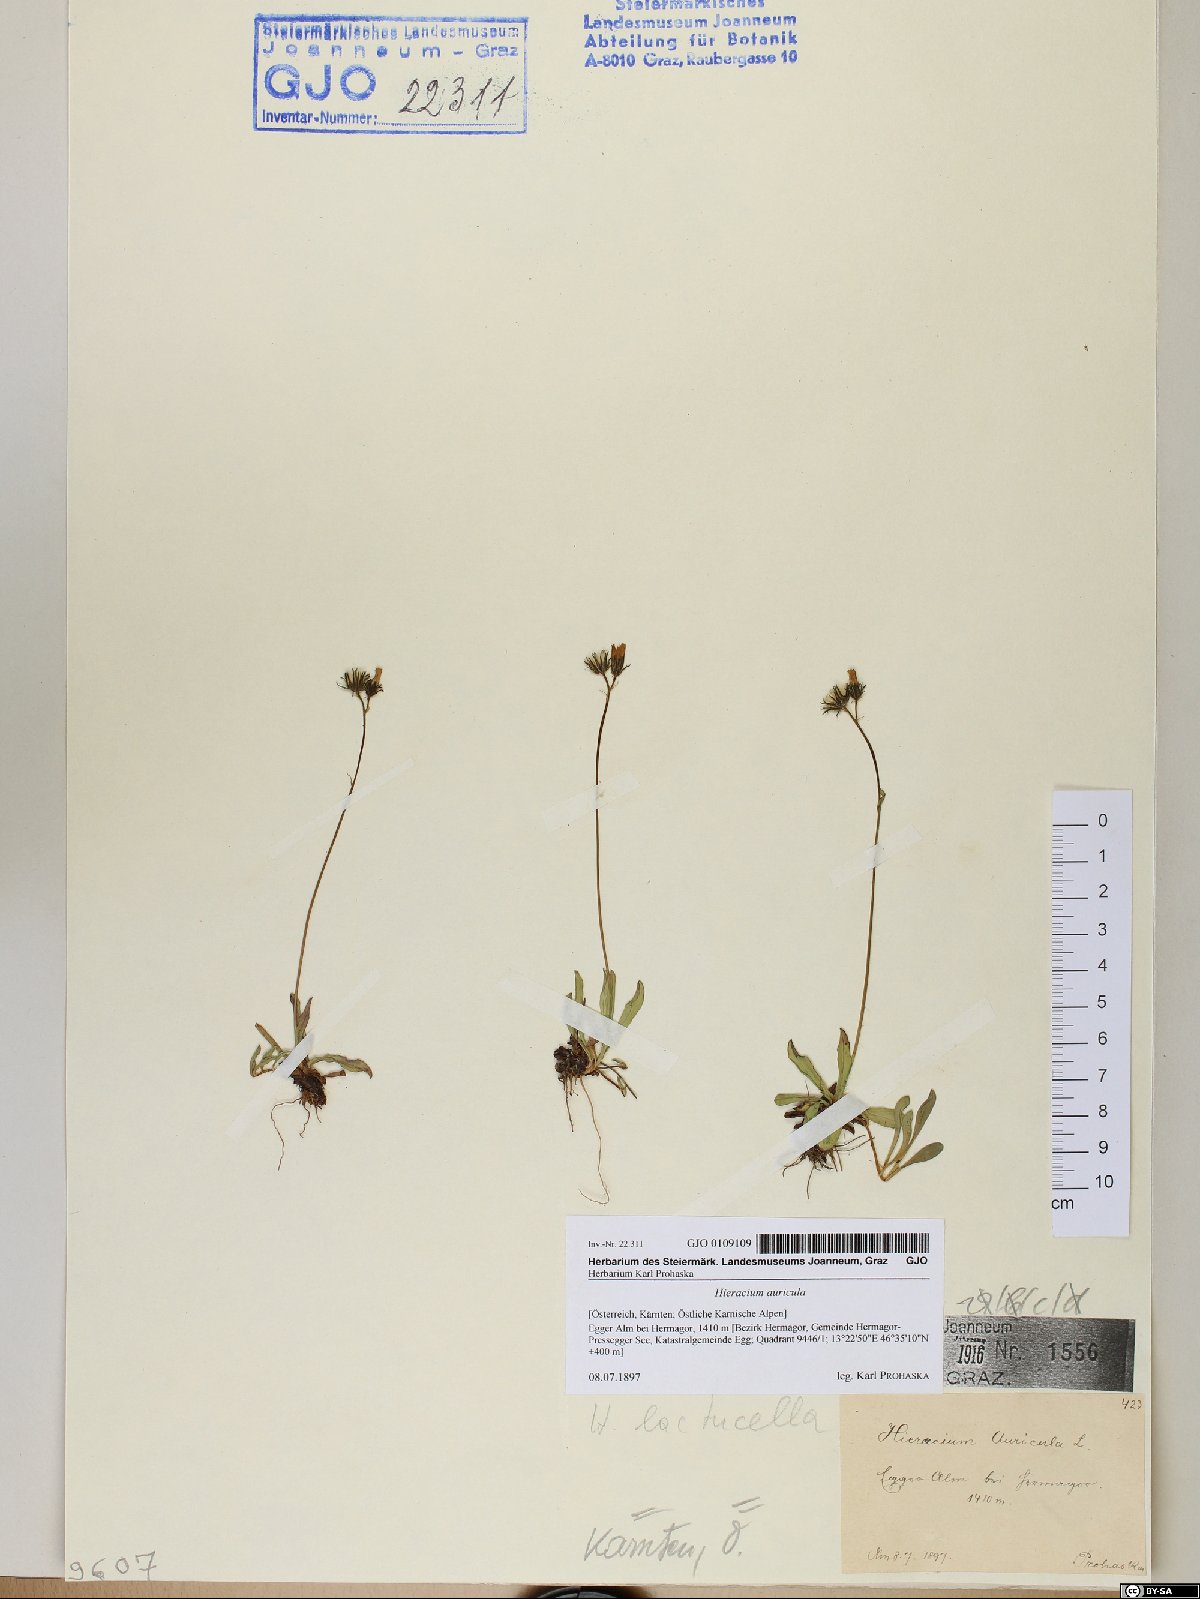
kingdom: Plantae
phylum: Tracheophyta
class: Magnoliopsida
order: Asterales
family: Asteraceae
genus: Hieracium
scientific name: Hieracium auricula
